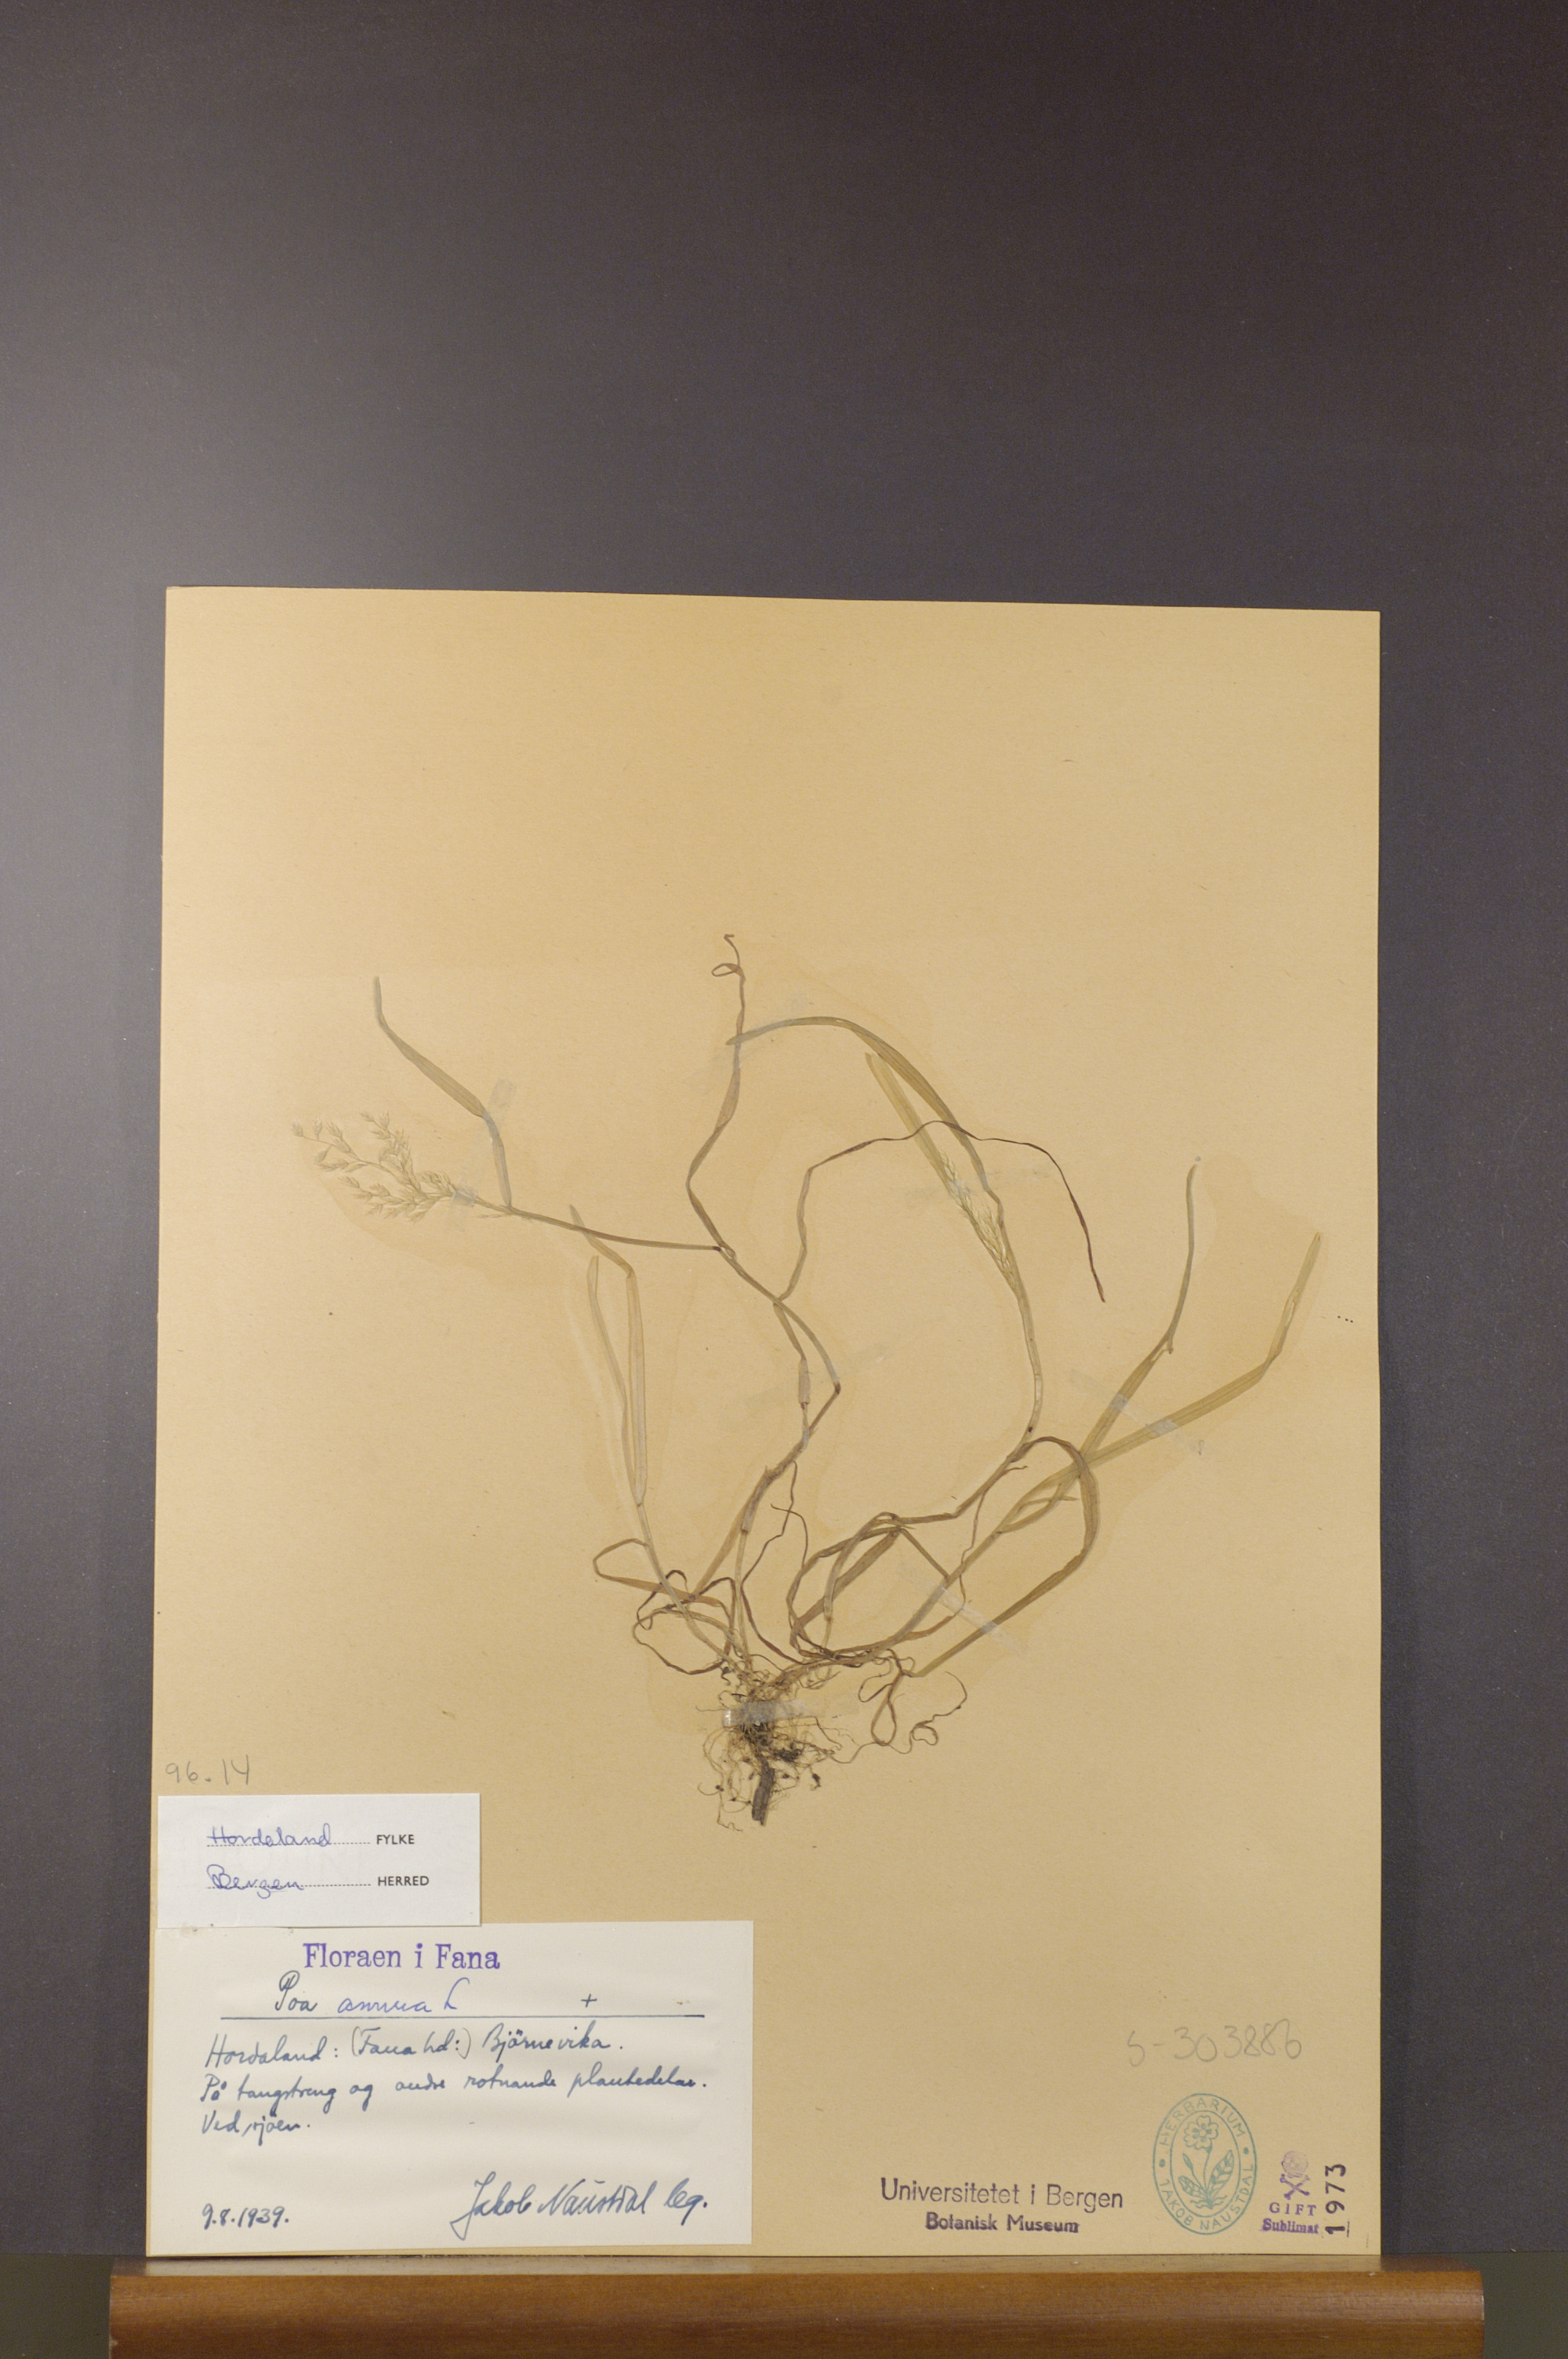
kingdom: Plantae
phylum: Tracheophyta
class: Liliopsida
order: Poales
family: Poaceae
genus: Poa
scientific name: Poa annua
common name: Annual bluegrass
